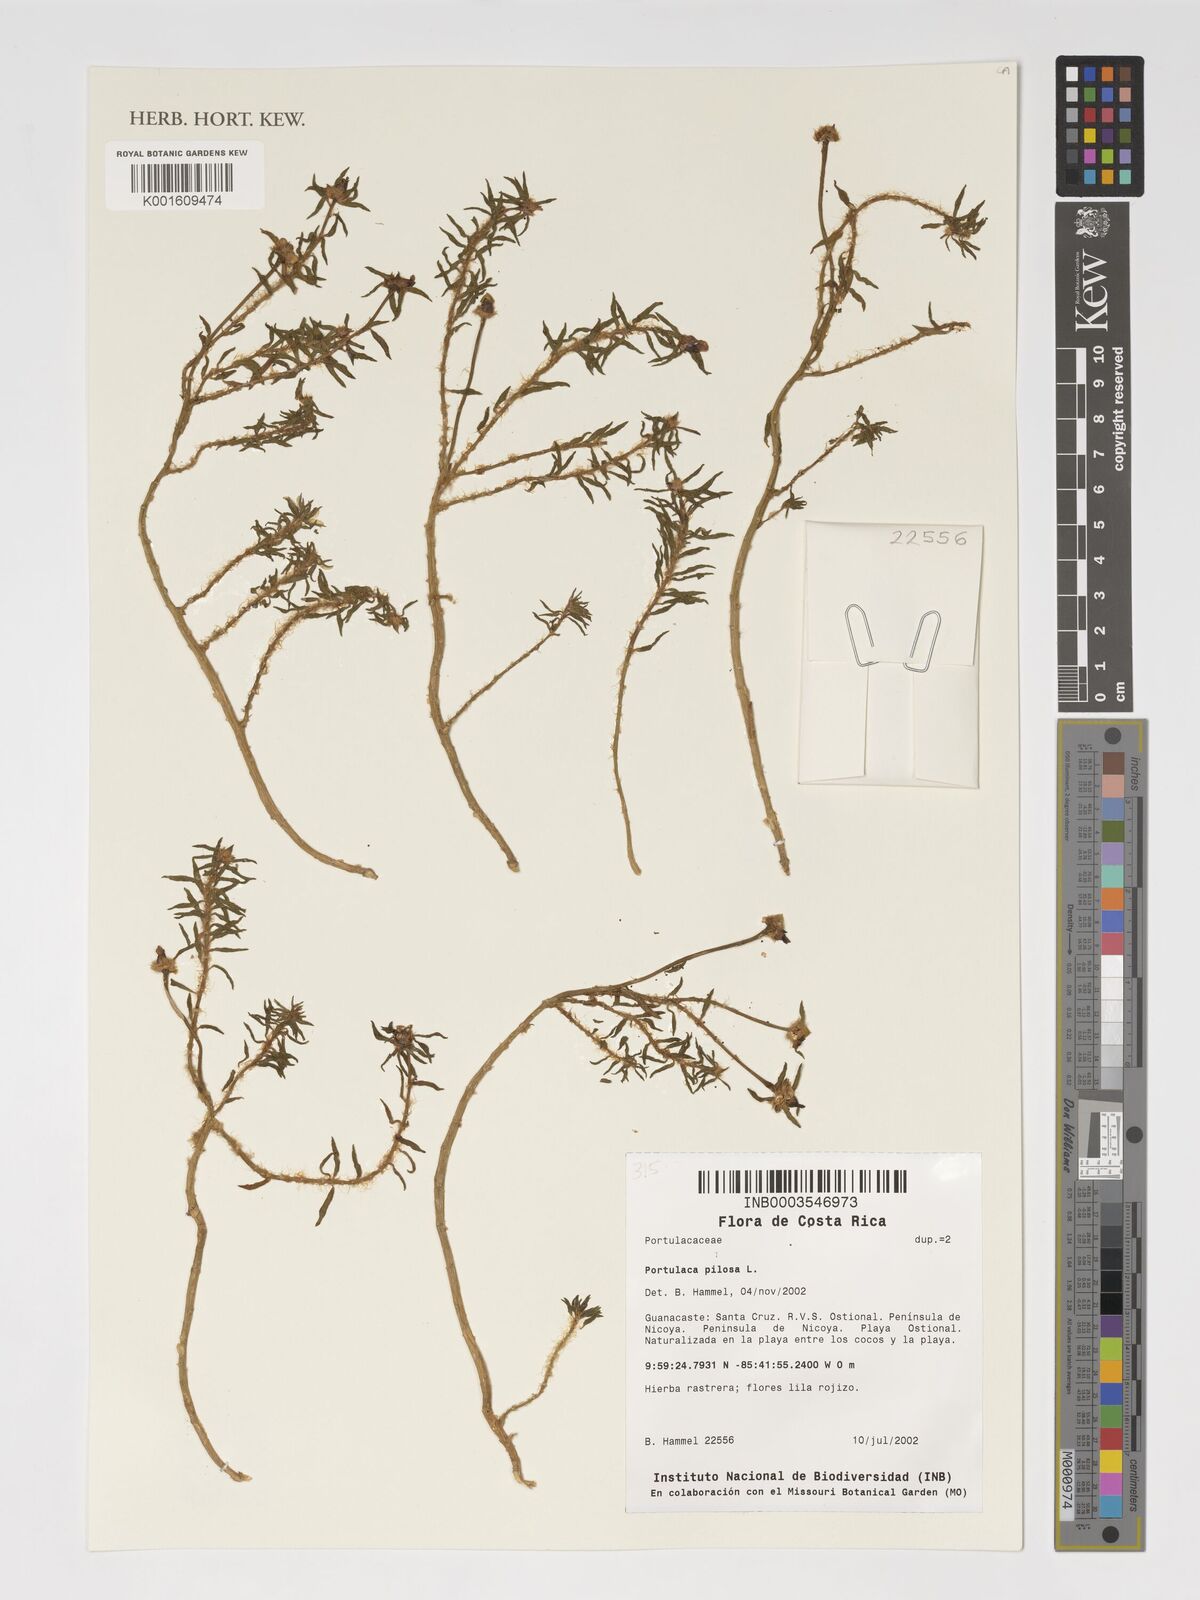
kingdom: Plantae
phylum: Tracheophyta
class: Magnoliopsida
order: Caryophyllales
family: Portulacaceae
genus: Portulaca
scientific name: Portulaca pilosa
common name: Kiss me quick
